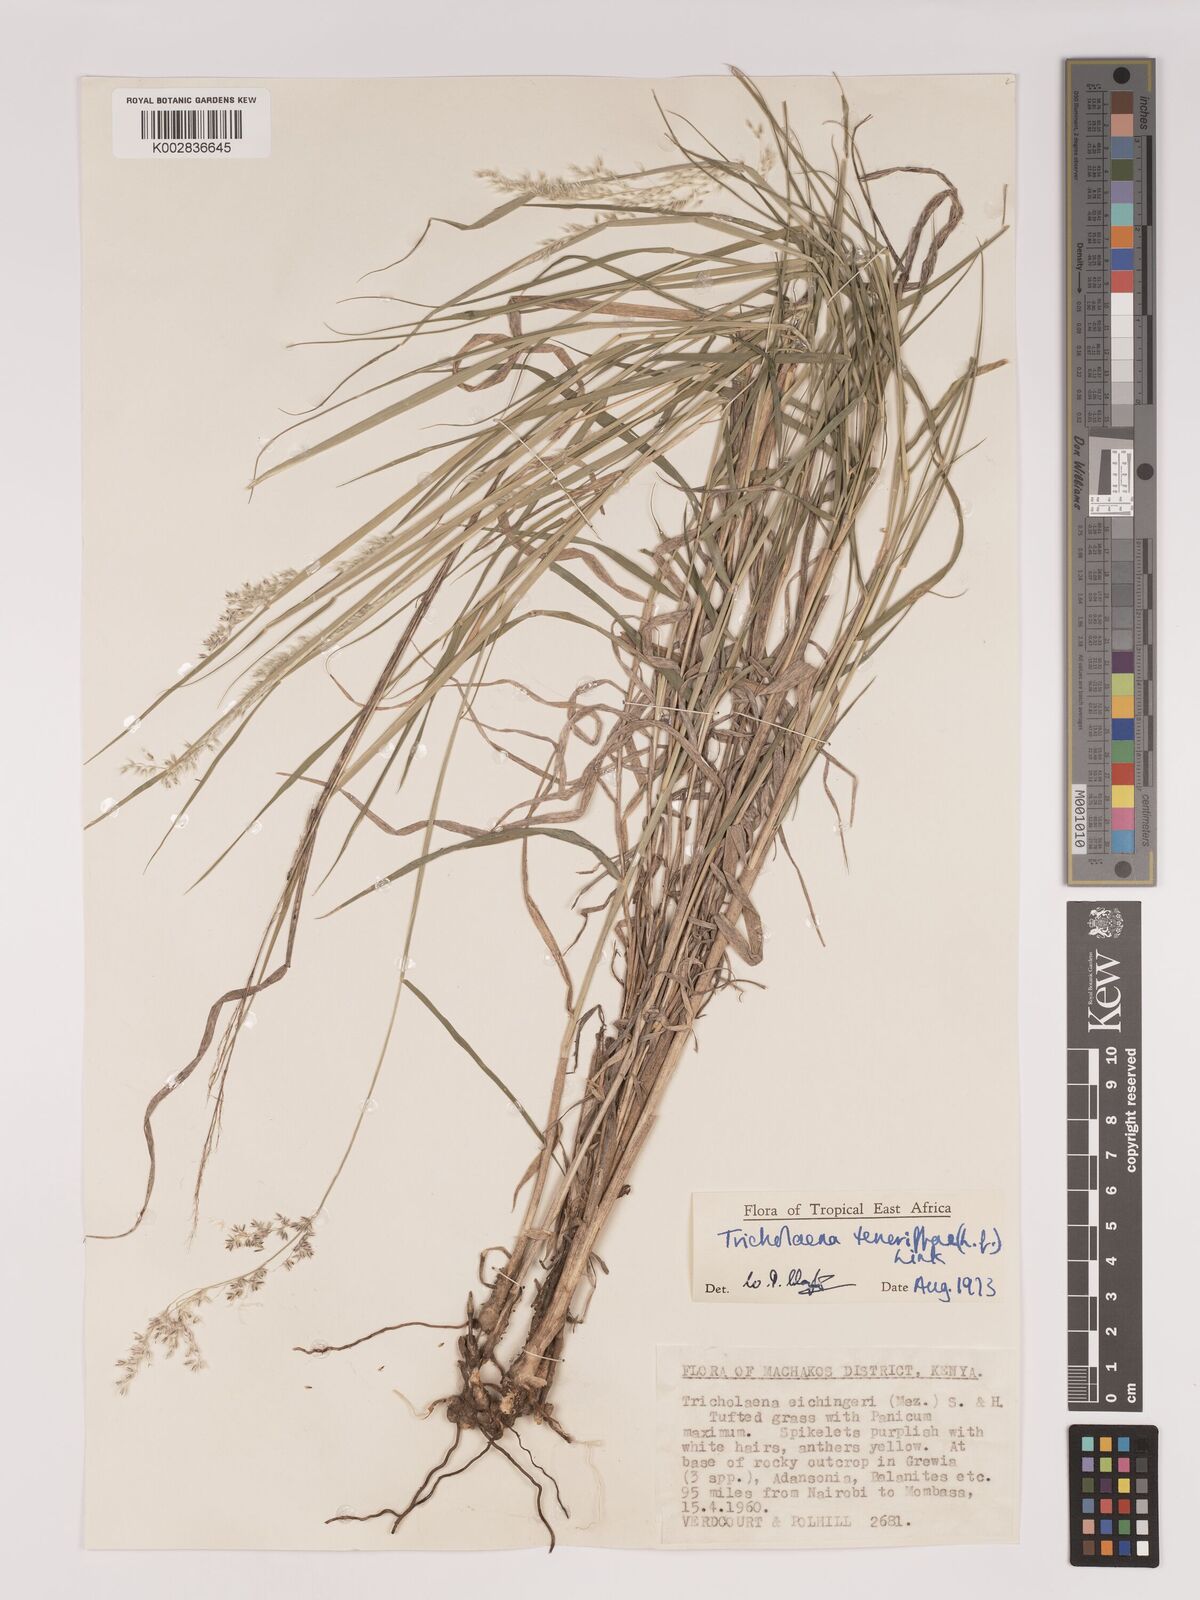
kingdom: Plantae
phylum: Tracheophyta
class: Liliopsida
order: Poales
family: Poaceae
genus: Tricholaena
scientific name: Tricholaena teneriffae
